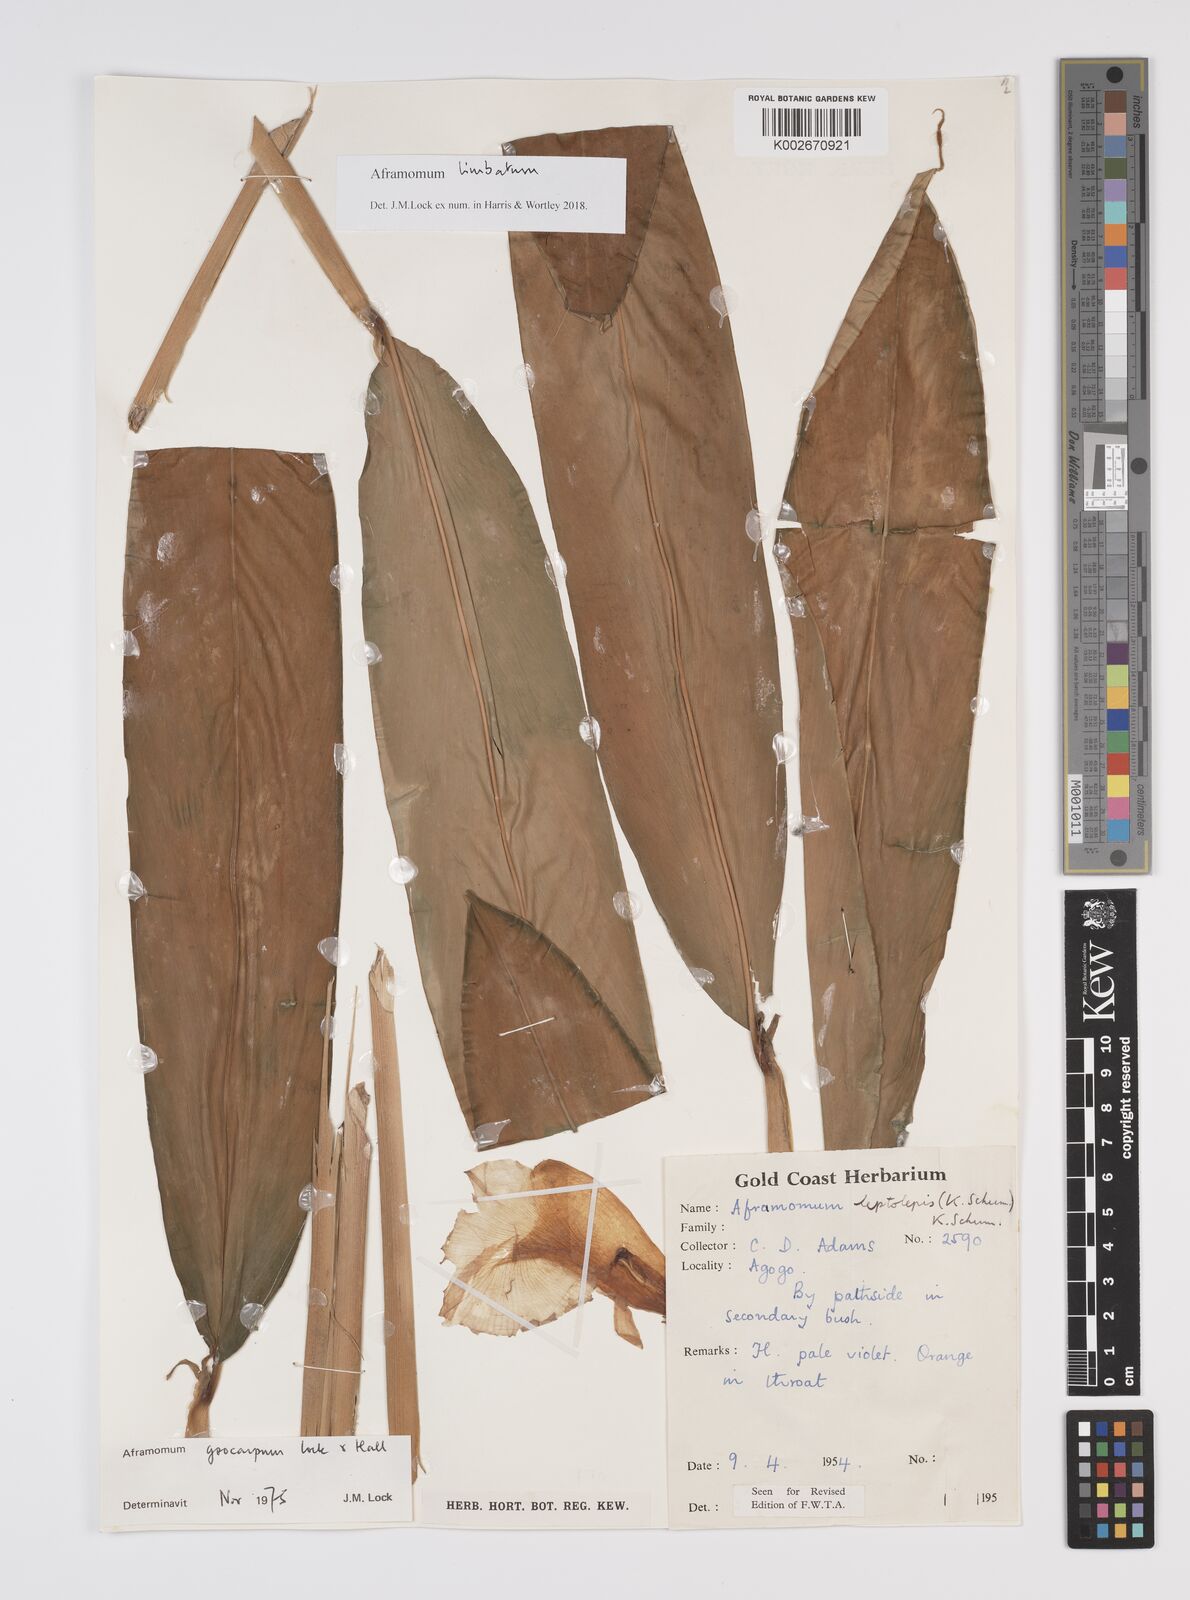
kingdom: Plantae
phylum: Tracheophyta
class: Liliopsida
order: Zingiberales
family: Zingiberaceae
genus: Aframomum
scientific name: Aframomum limbatum
